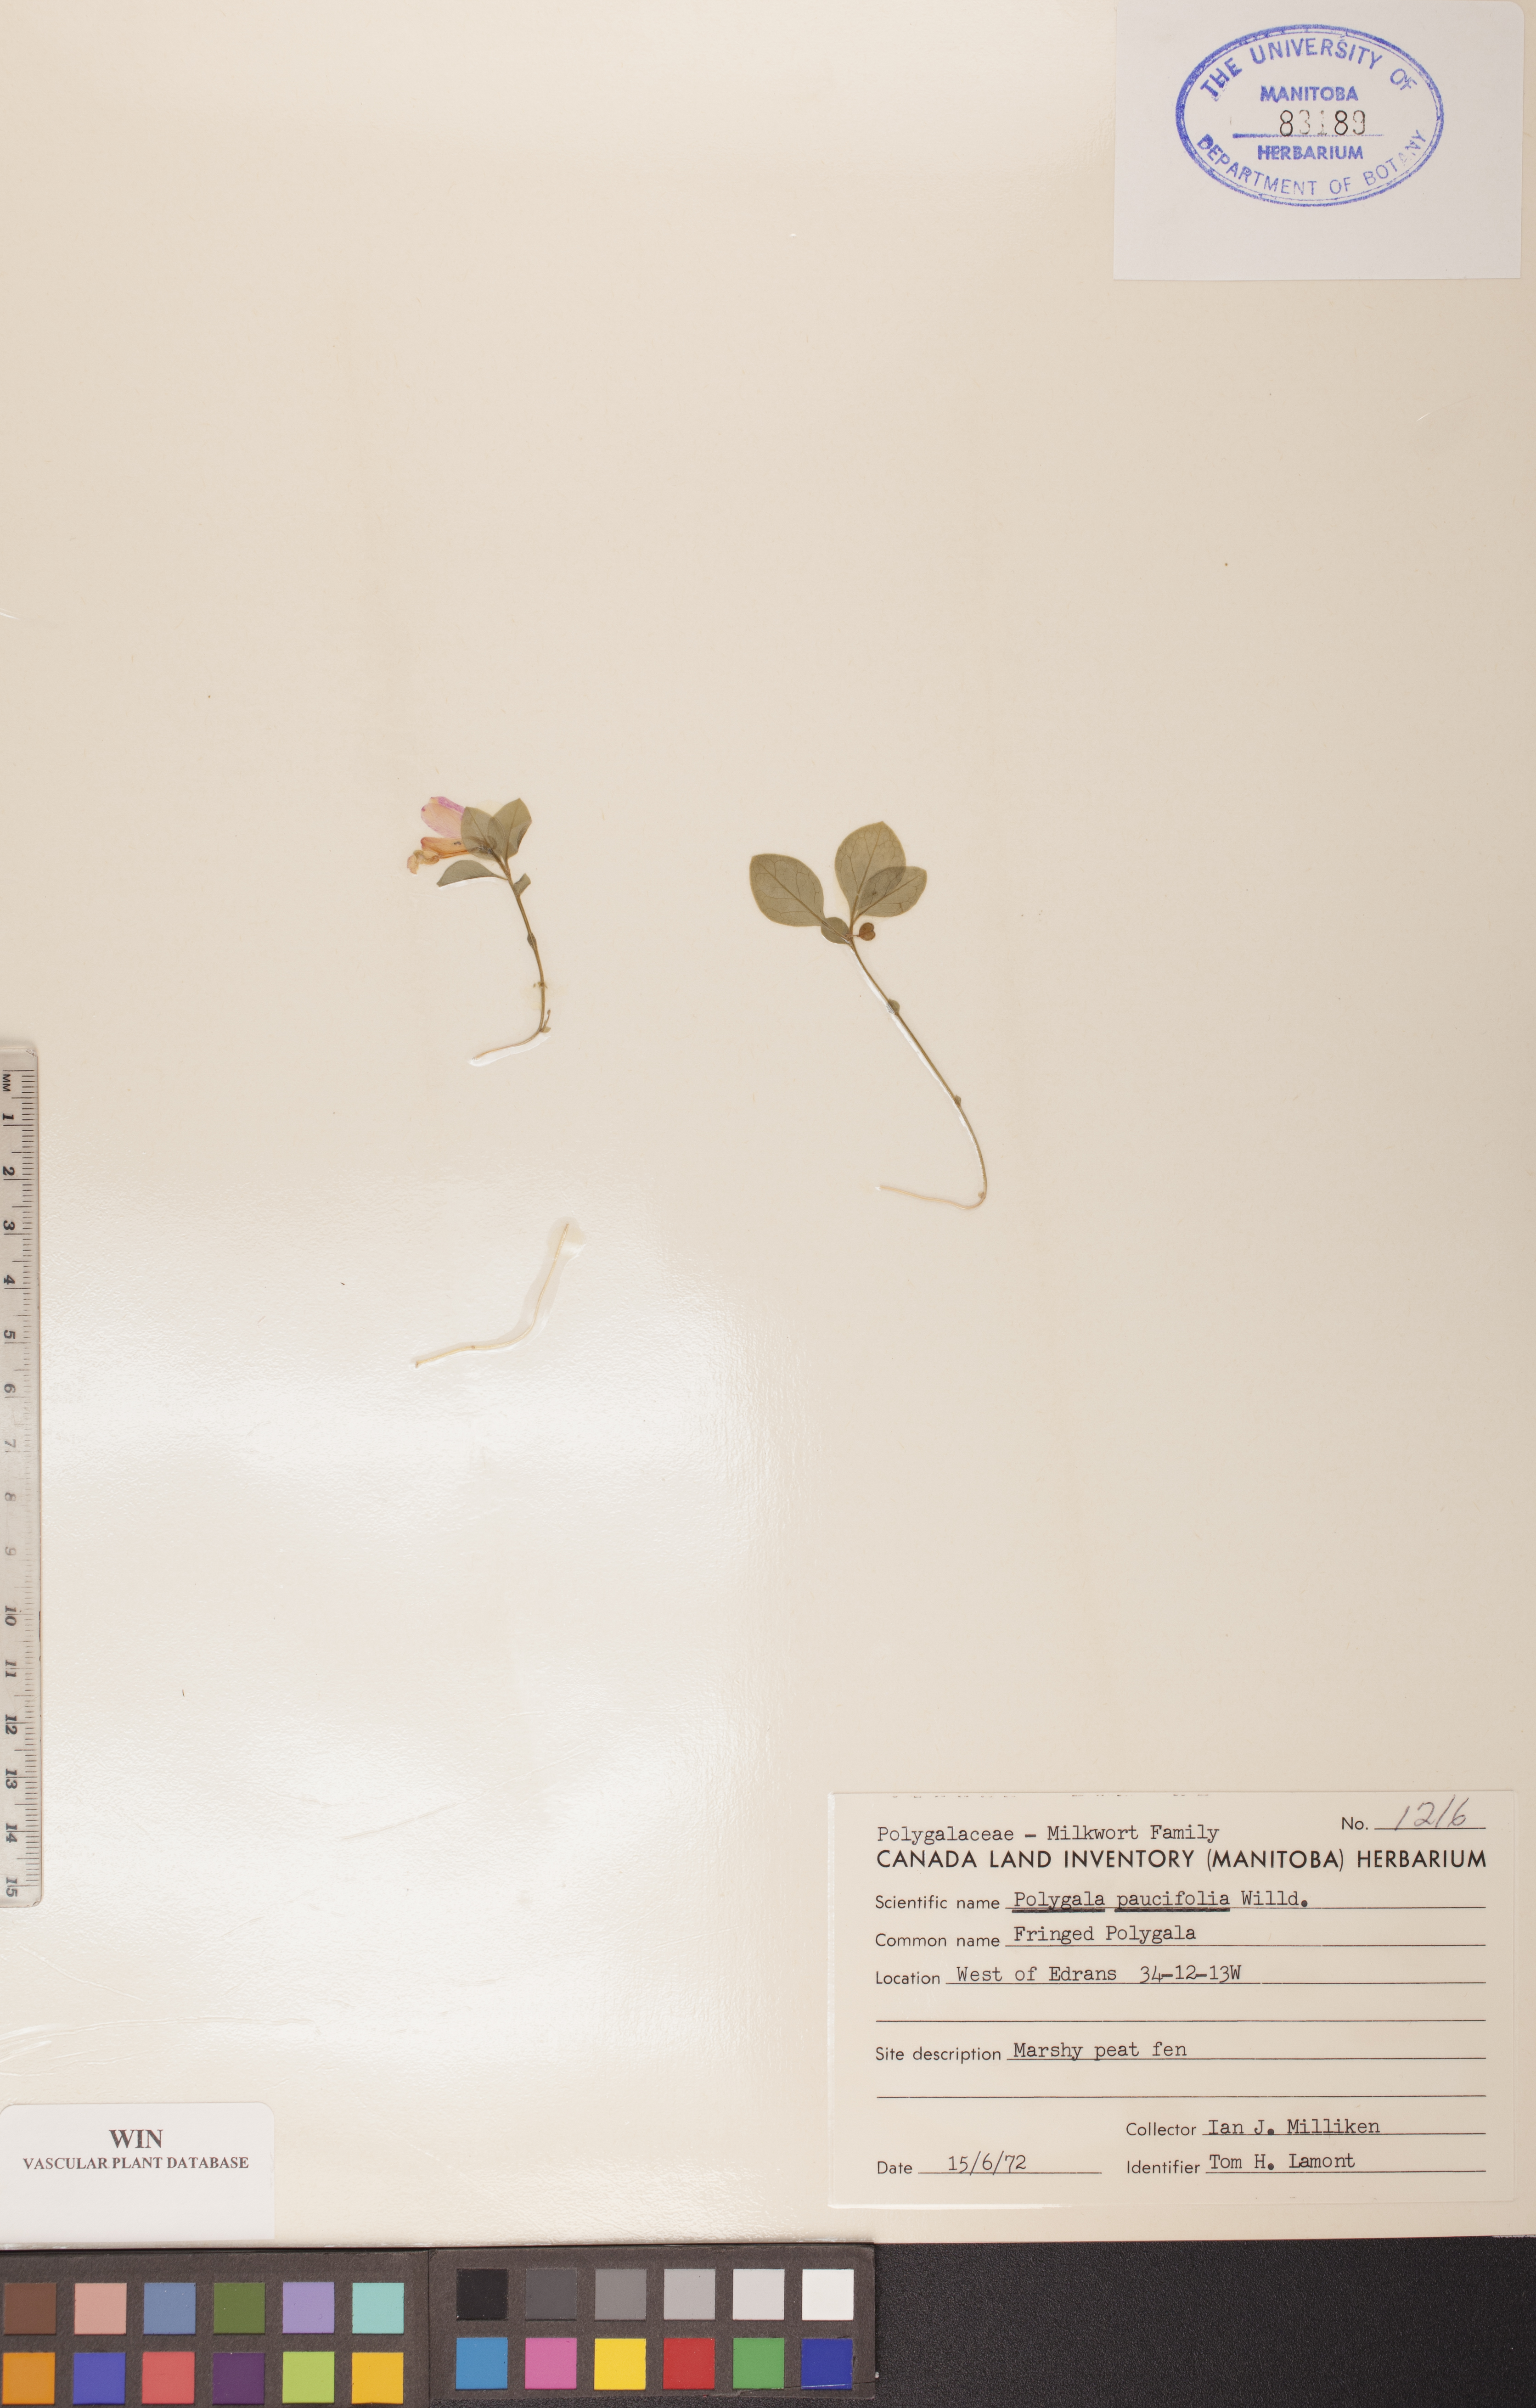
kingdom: Plantae
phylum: Tracheophyta
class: Magnoliopsida
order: Fabales
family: Polygalaceae
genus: Polygaloides
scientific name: Polygaloides paucifolia
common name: Bird-on-the-wing
